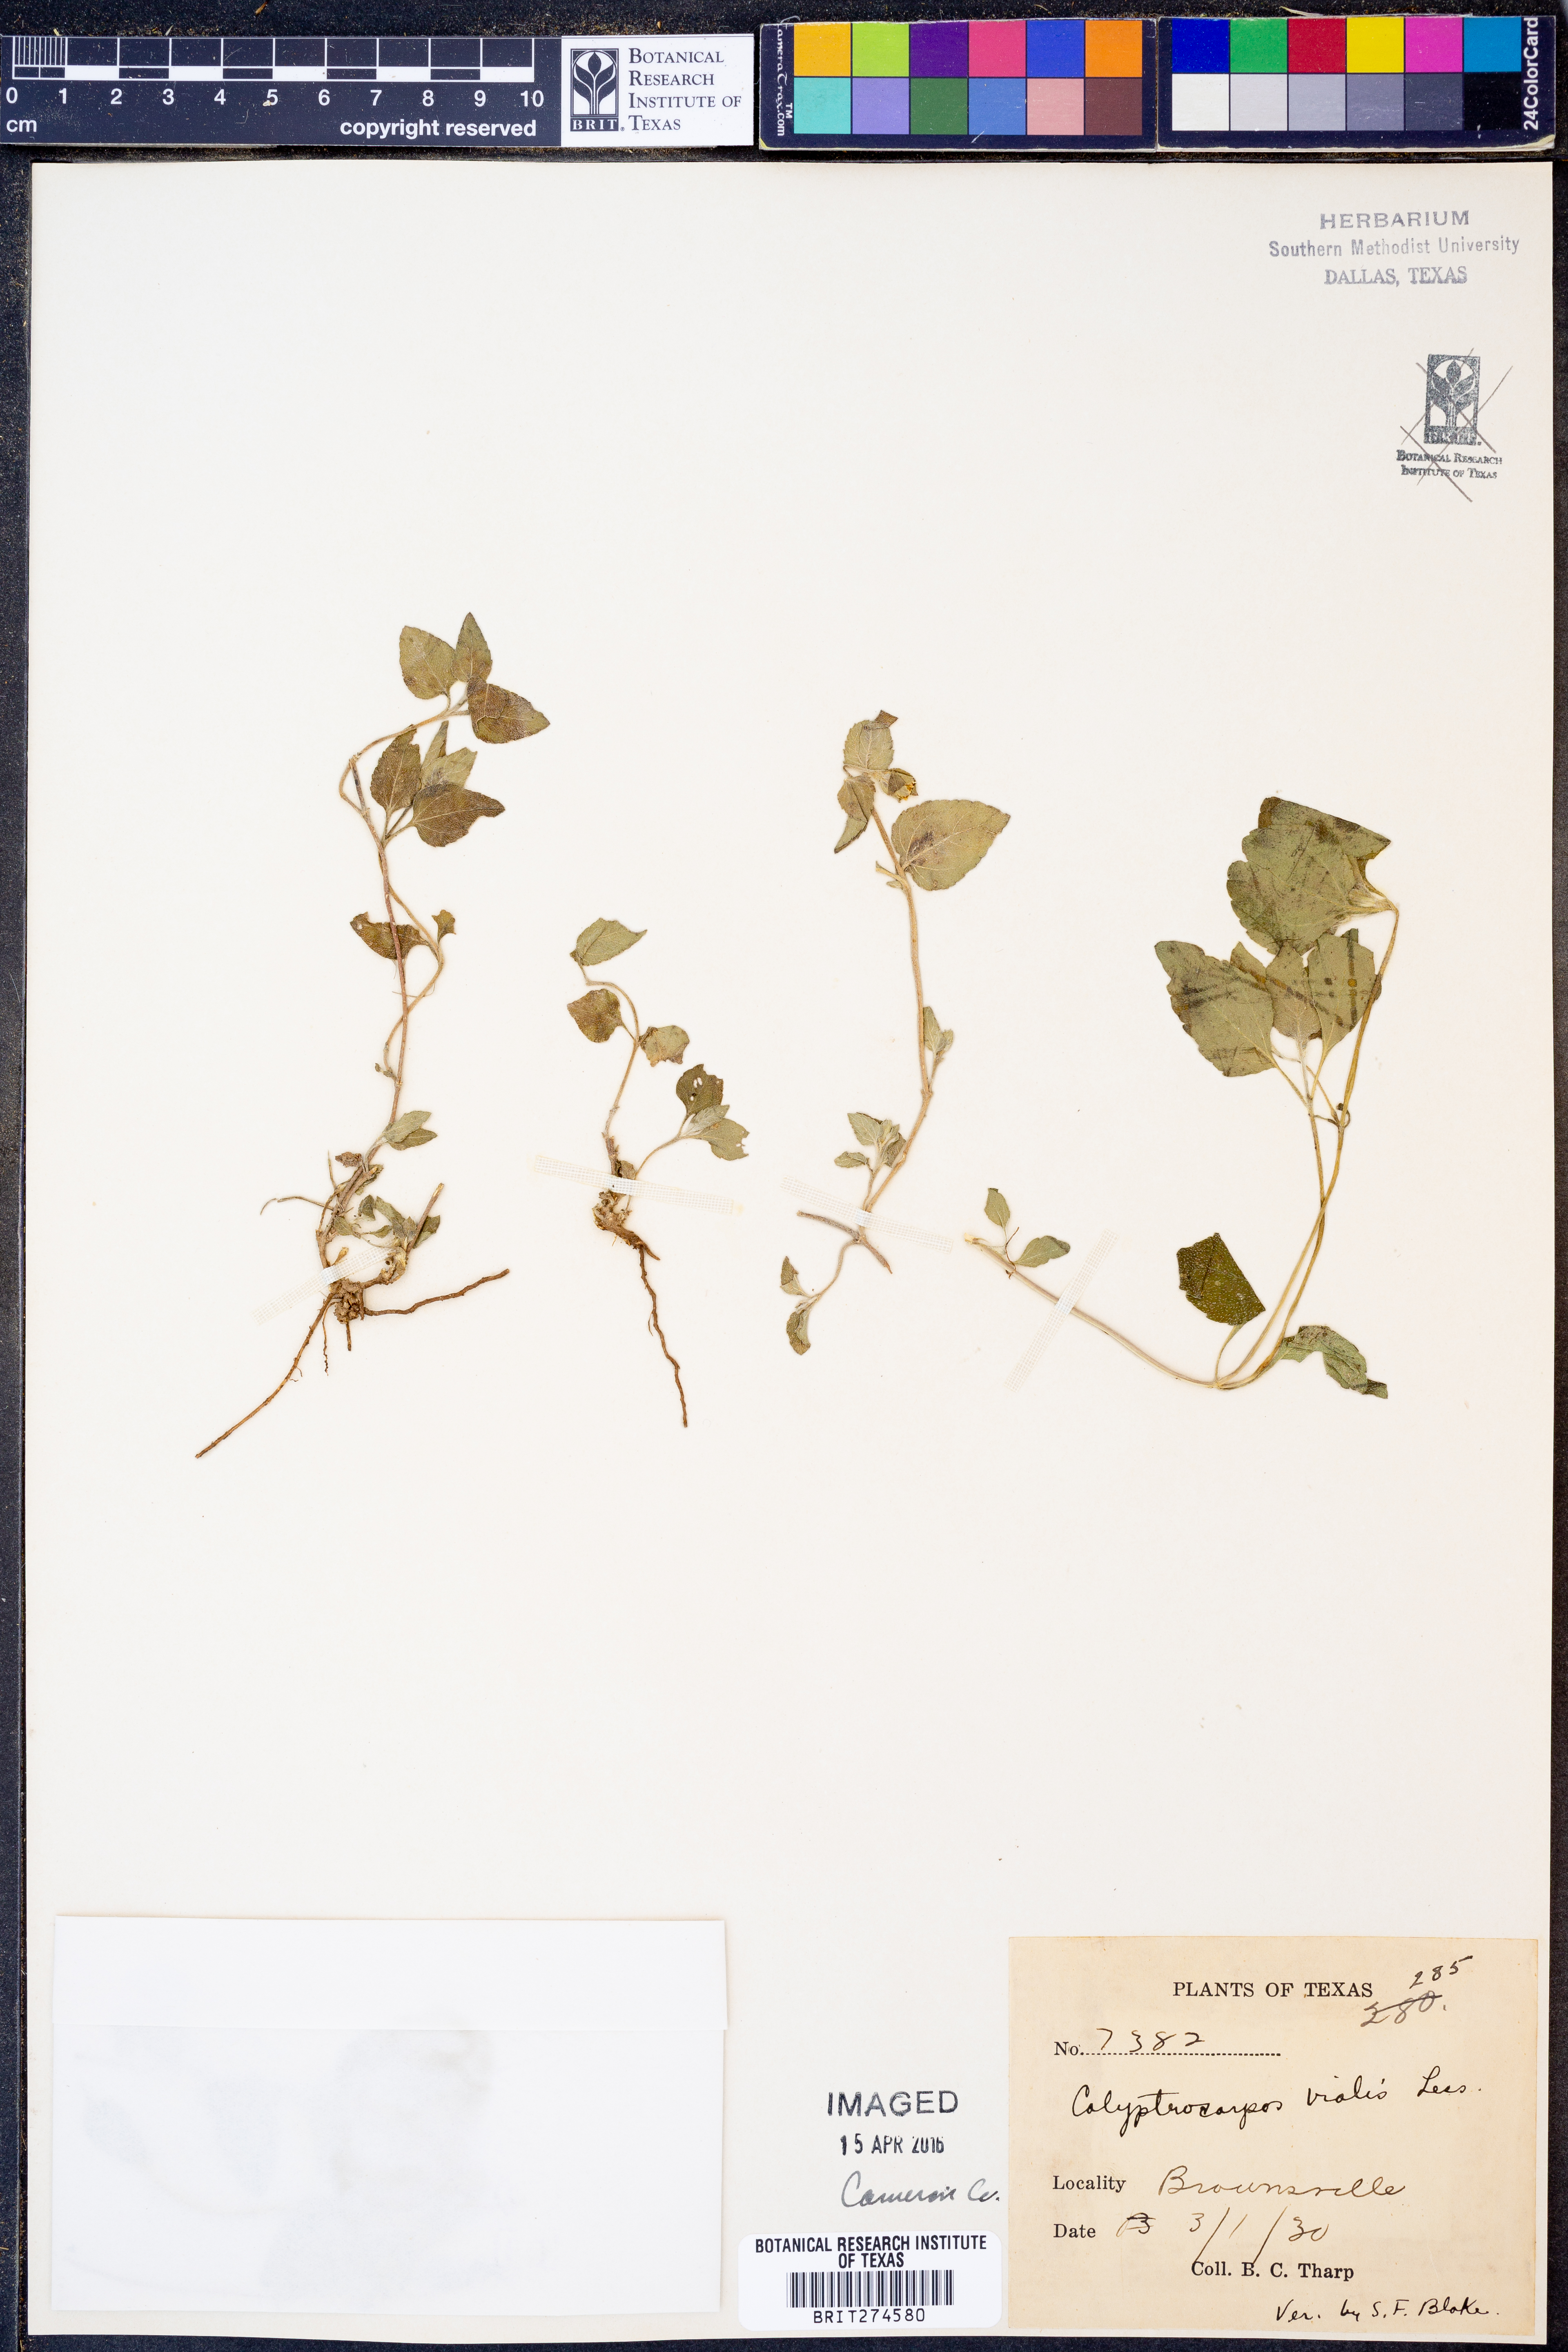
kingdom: Plantae
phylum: Tracheophyta
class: Magnoliopsida
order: Asterales
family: Asteraceae
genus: Calyptocarpus
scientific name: Calyptocarpus vialis
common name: Straggler daisy
